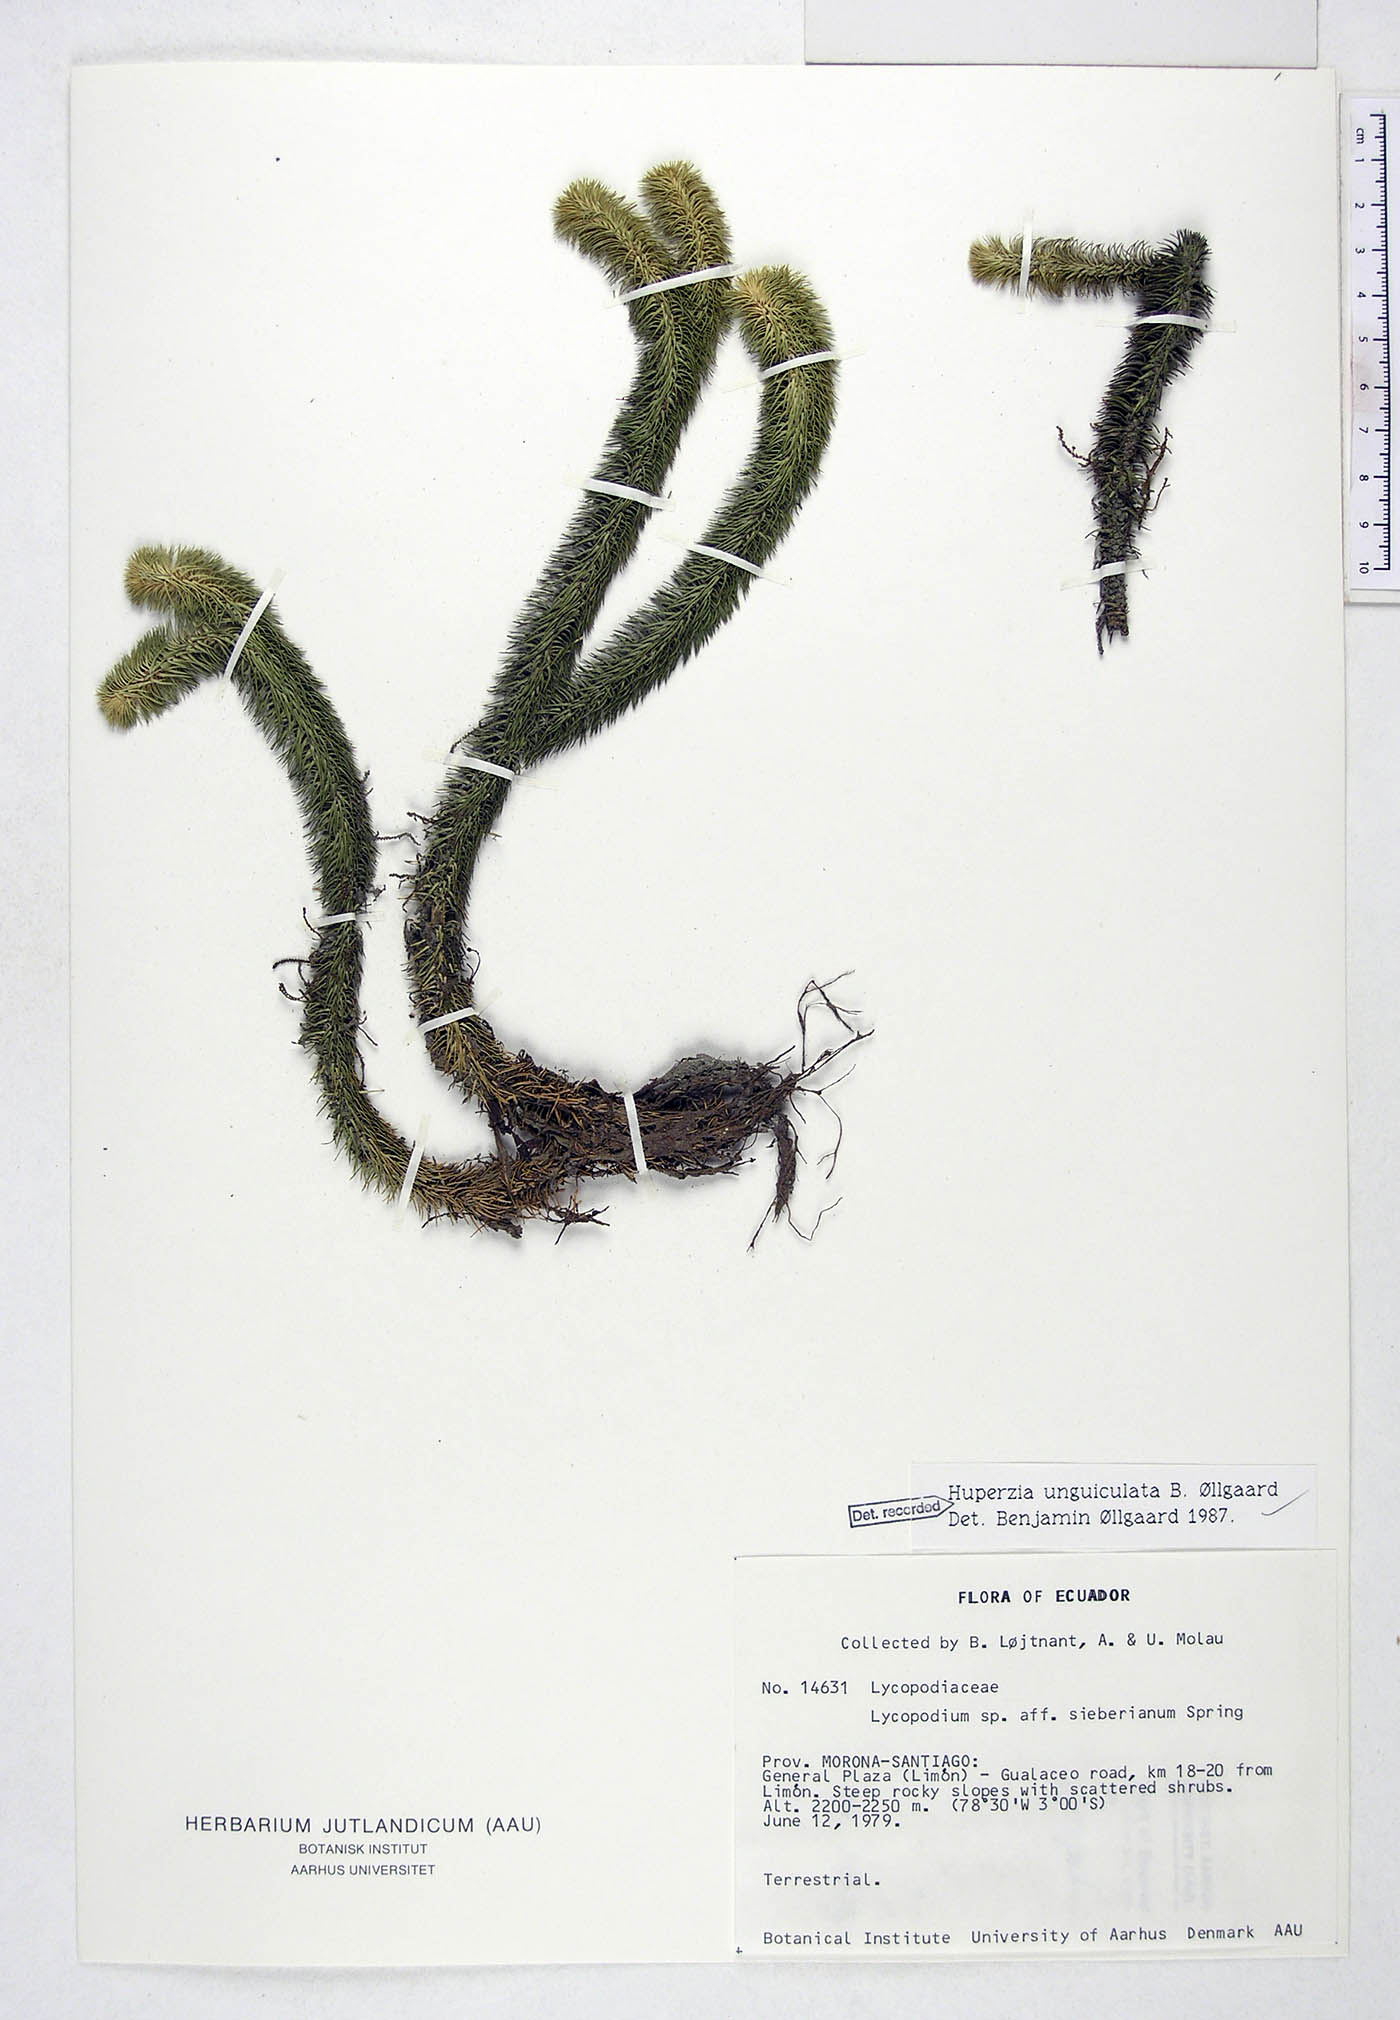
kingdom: Plantae
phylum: Tracheophyta
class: Lycopodiopsida
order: Lycopodiales
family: Lycopodiaceae
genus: Phlegmariurus
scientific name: Phlegmariurus unguiculatus
